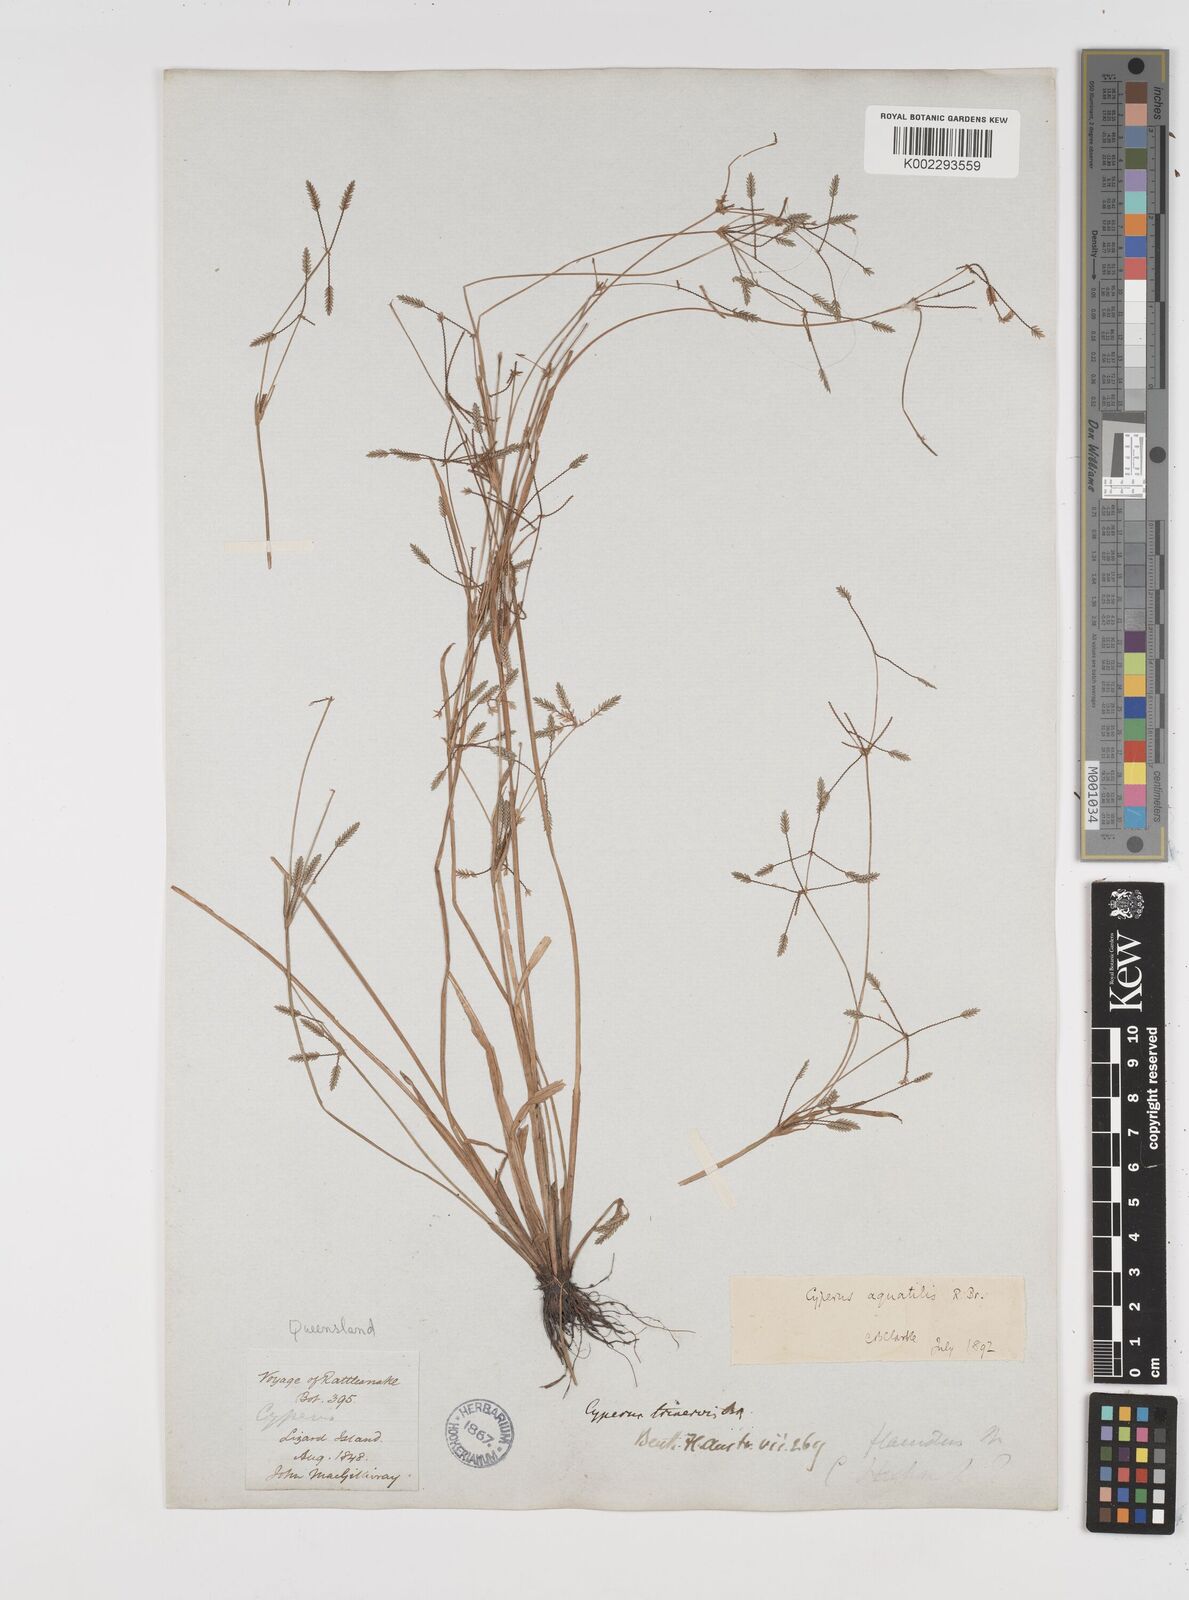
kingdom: Plantae
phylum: Tracheophyta
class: Liliopsida
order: Poales
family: Cyperaceae
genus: Cyperus
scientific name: Cyperus aquatilis
